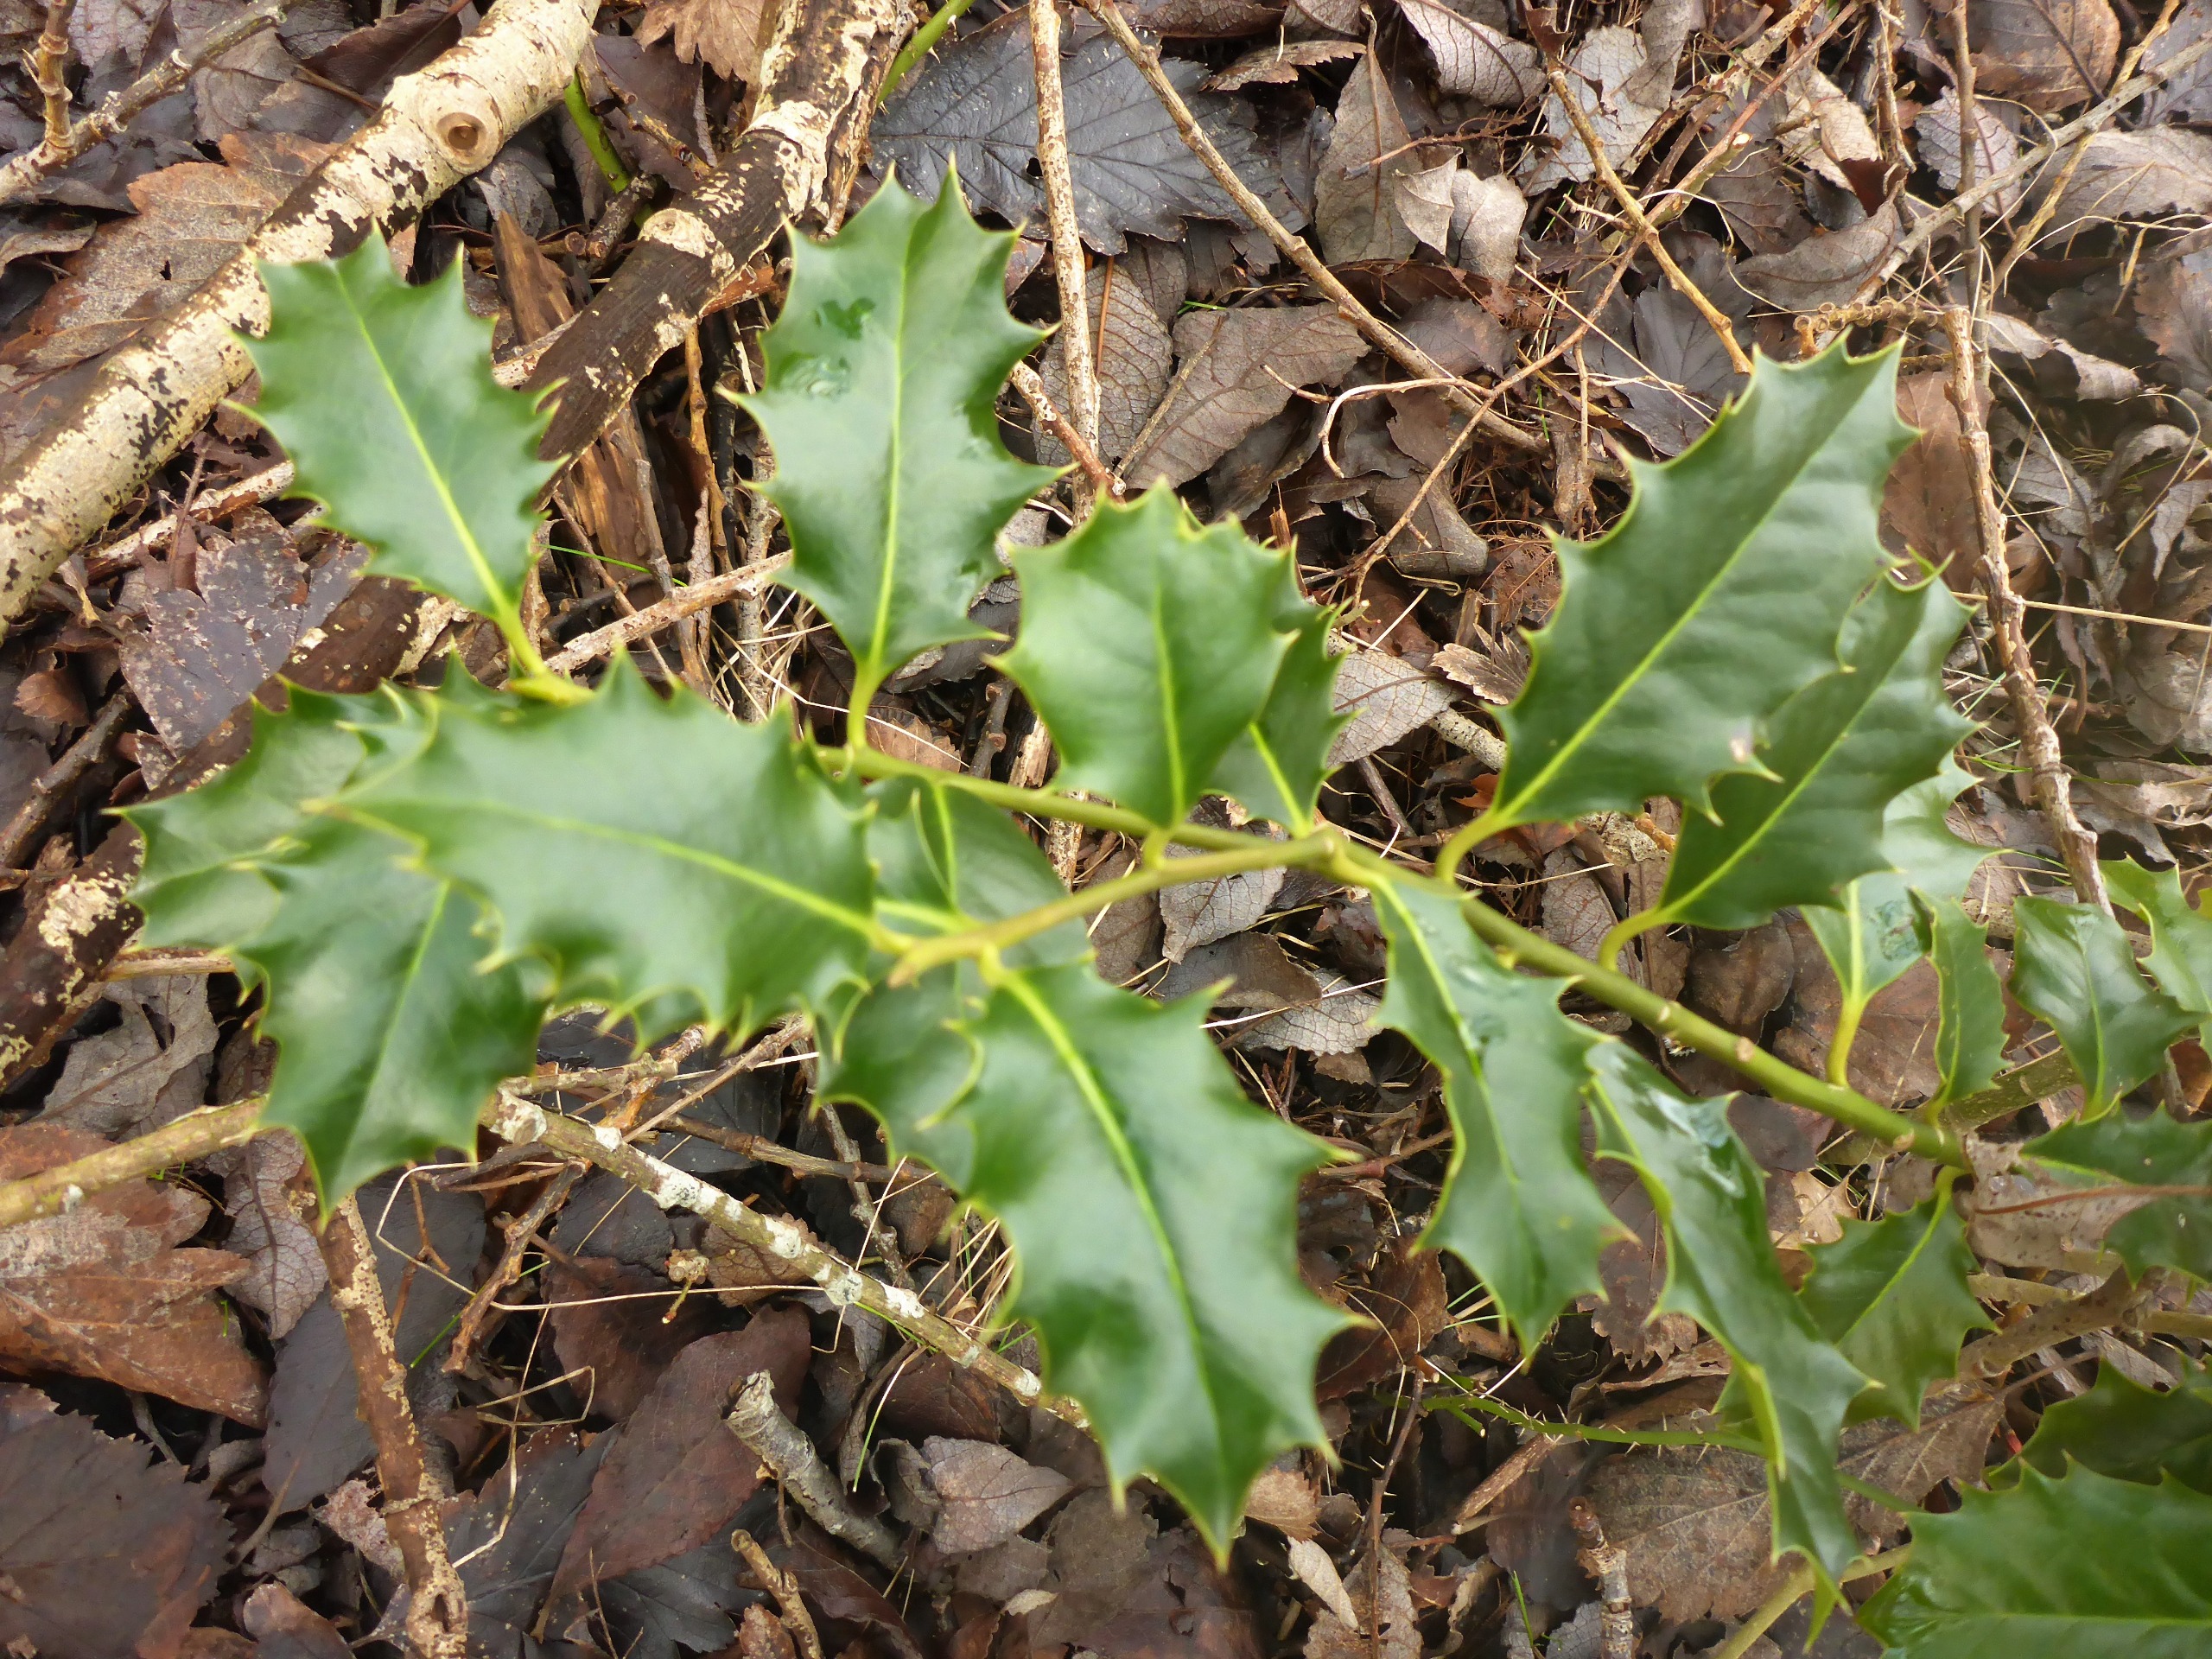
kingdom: Plantae
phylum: Tracheophyta
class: Magnoliopsida
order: Aquifoliales
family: Aquifoliaceae
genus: Ilex
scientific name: Ilex aquifolium
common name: Kristtorn
